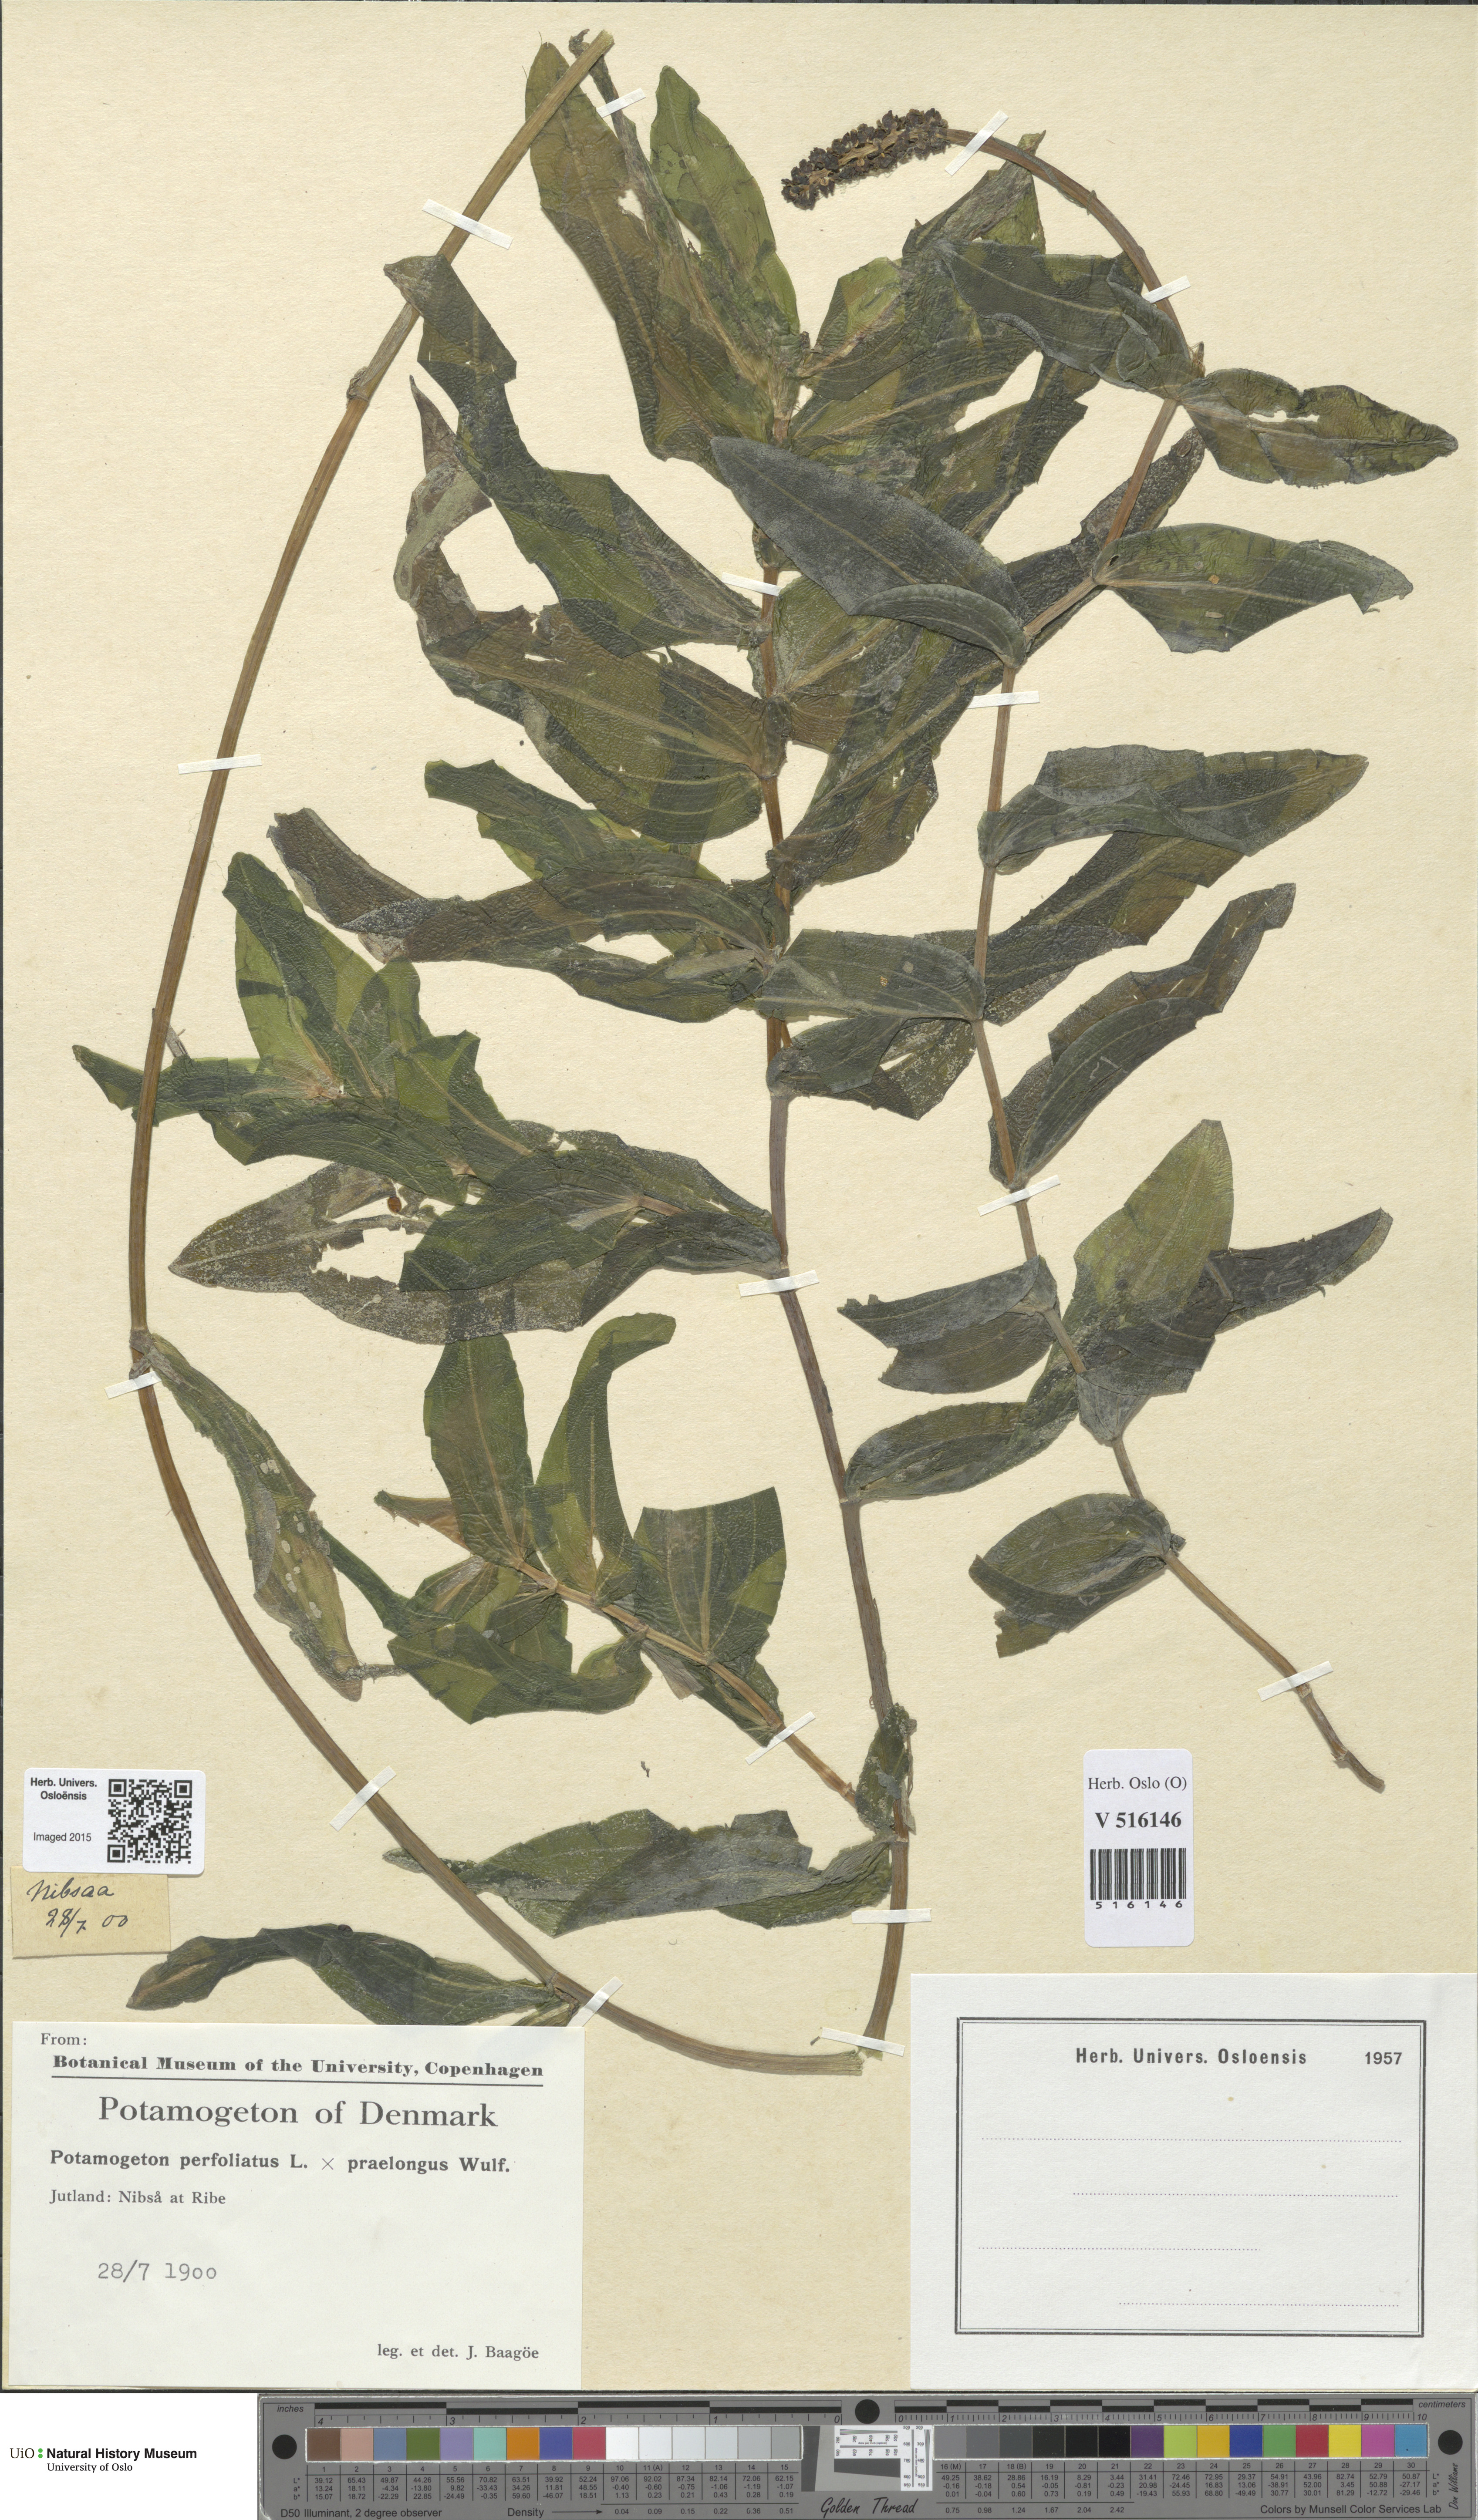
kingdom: Plantae
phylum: Tracheophyta
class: Liliopsida
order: Alismatales
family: Potamogetonaceae
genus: Potamogeton
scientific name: Potamogeton
